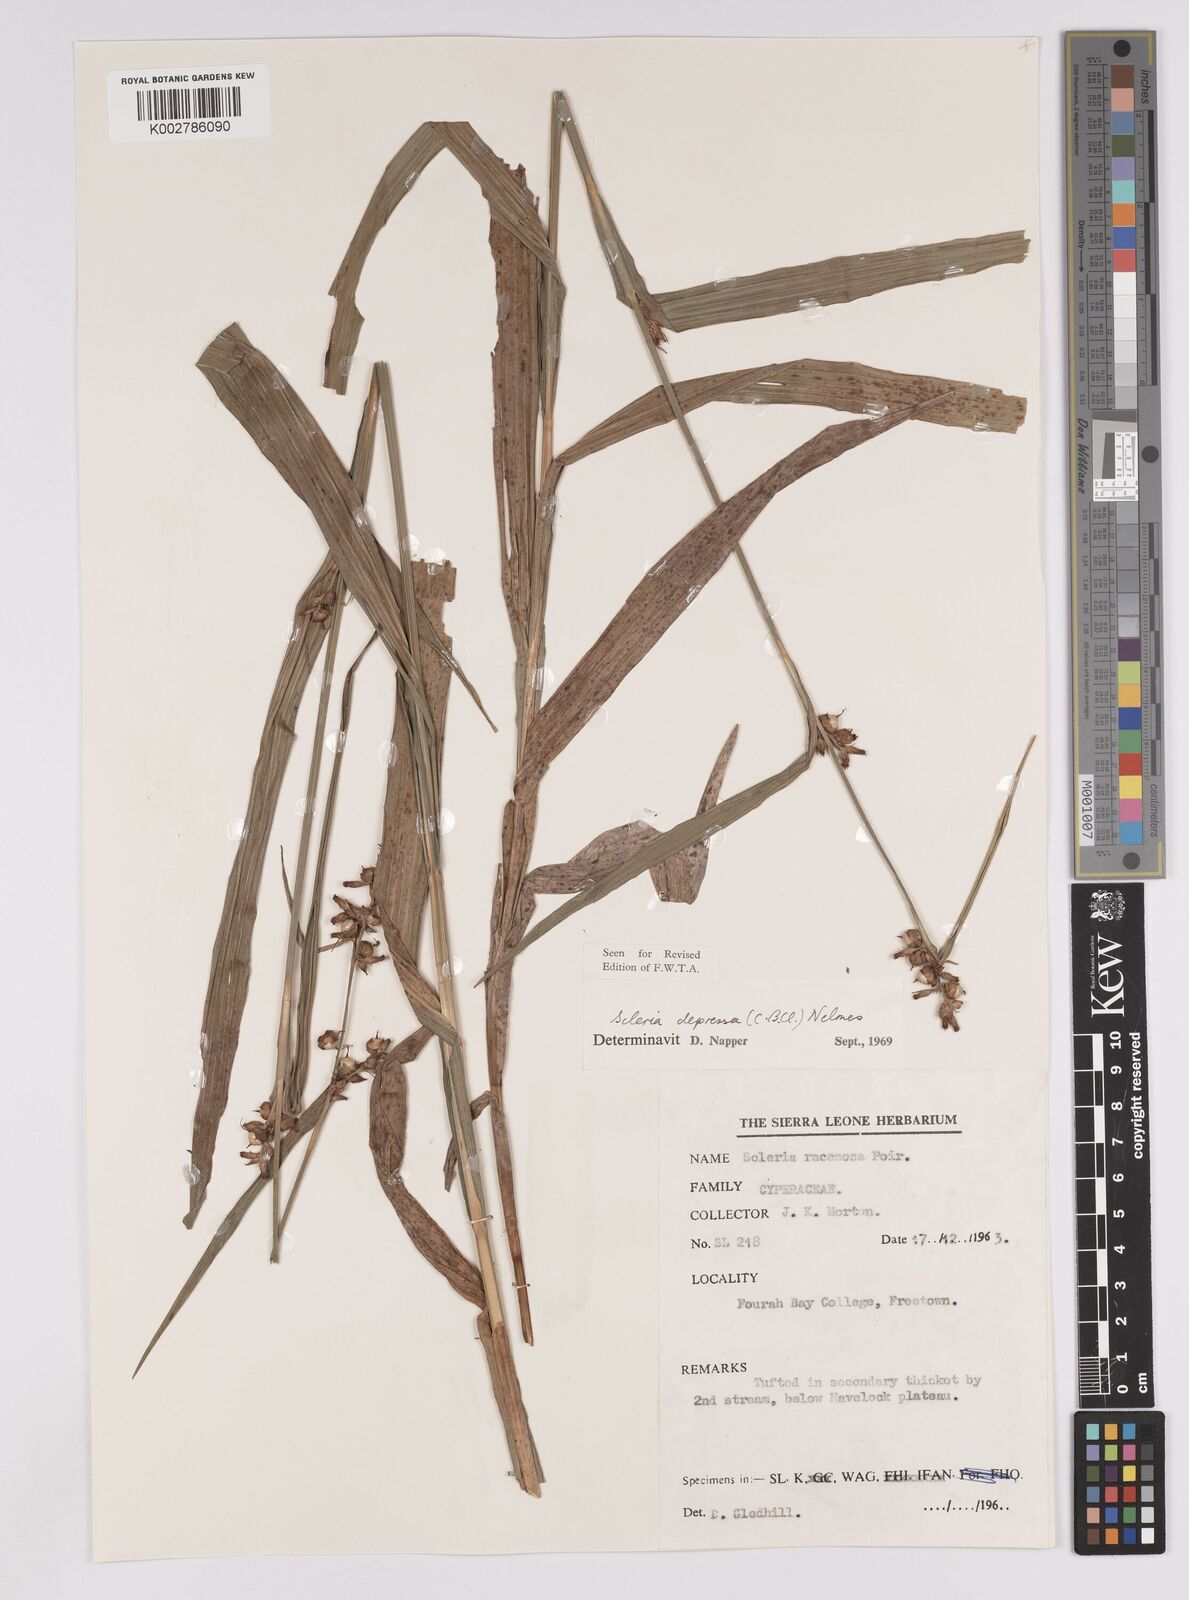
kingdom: Plantae
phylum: Tracheophyta
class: Liliopsida
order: Poales
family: Cyperaceae
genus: Scleria
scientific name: Scleria depressa
